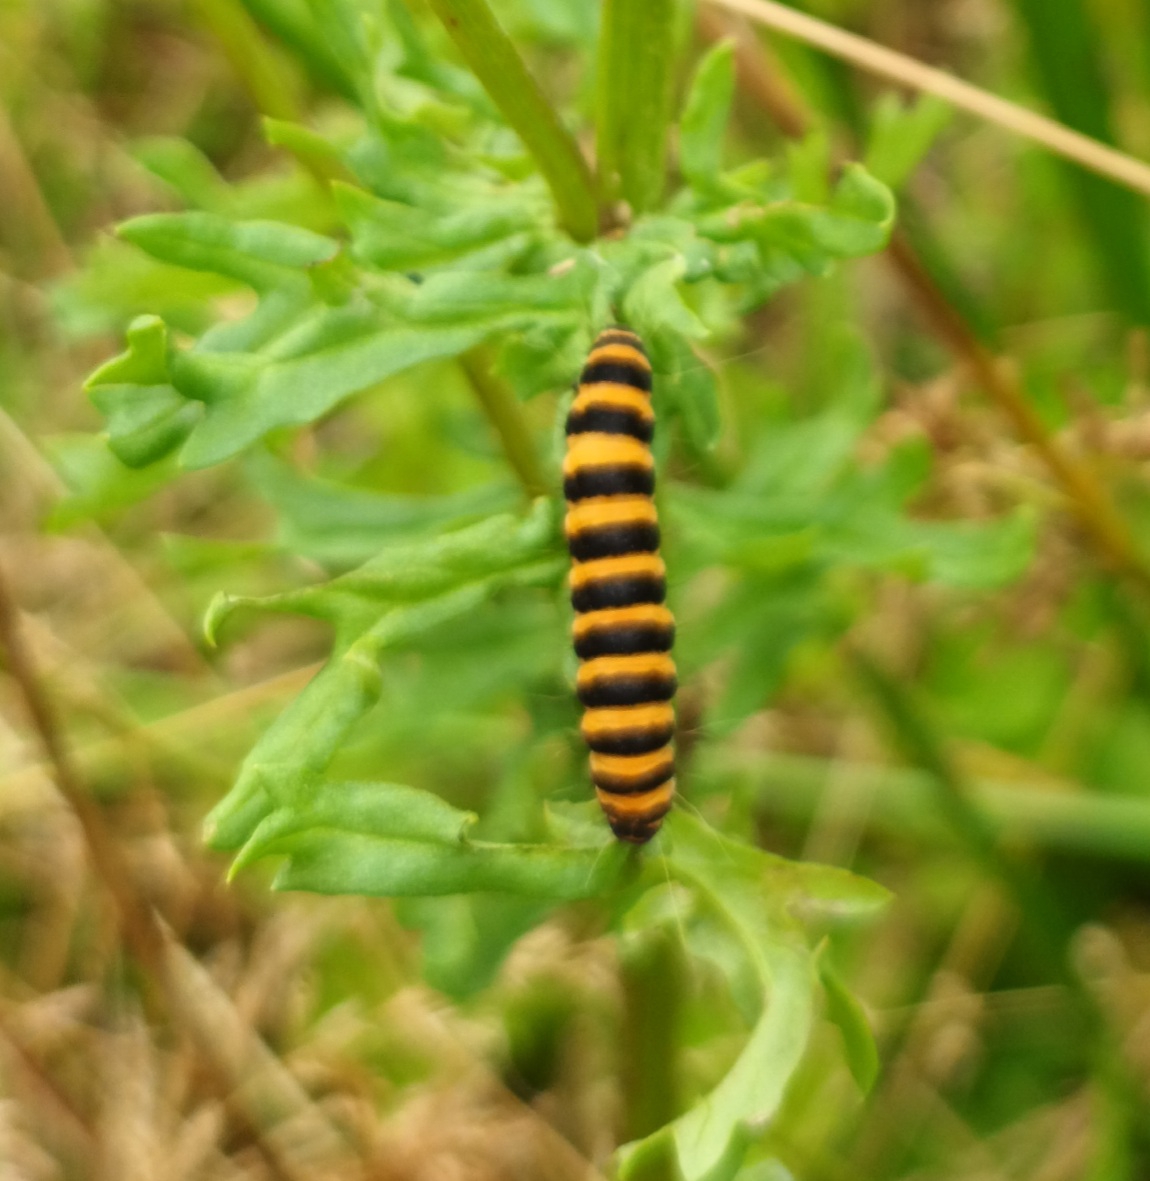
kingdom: Animalia
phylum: Arthropoda
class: Insecta
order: Lepidoptera
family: Erebidae
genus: Tyria
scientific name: Tyria jacobaeae
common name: Blodplet
